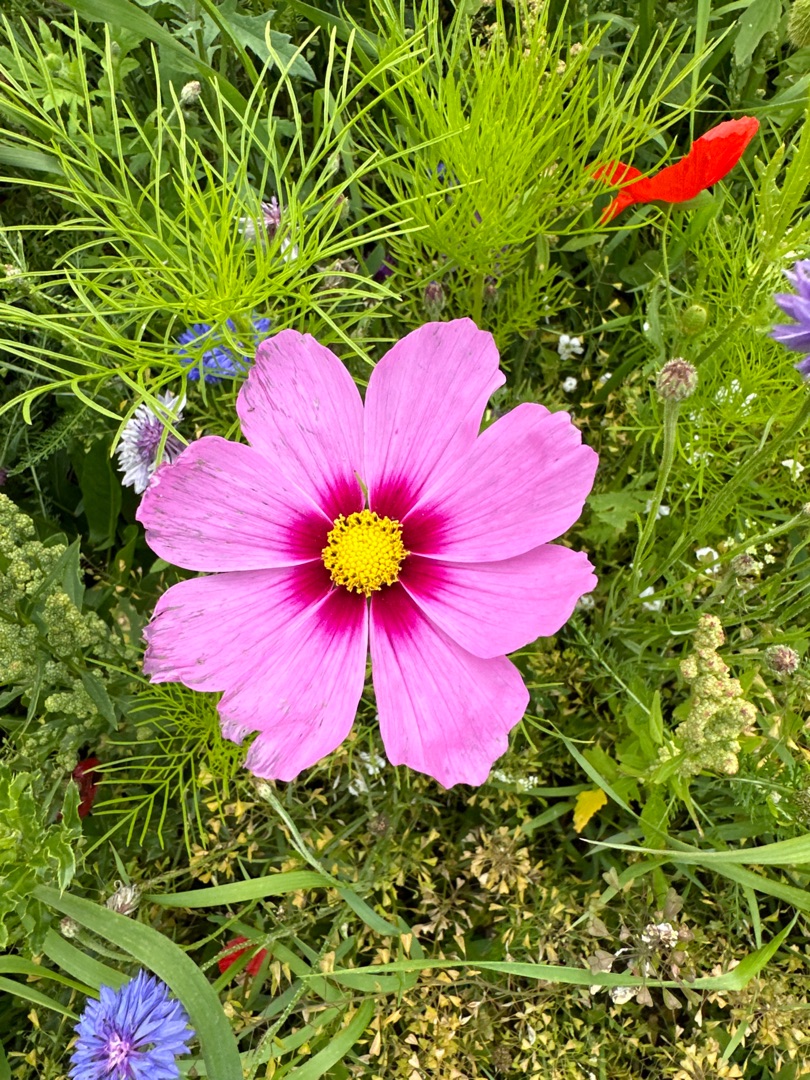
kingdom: Plantae
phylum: Tracheophyta
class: Magnoliopsida
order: Asterales
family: Asteraceae
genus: Cosmos
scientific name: Cosmos bipinnatus
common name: Stolt kavaler
